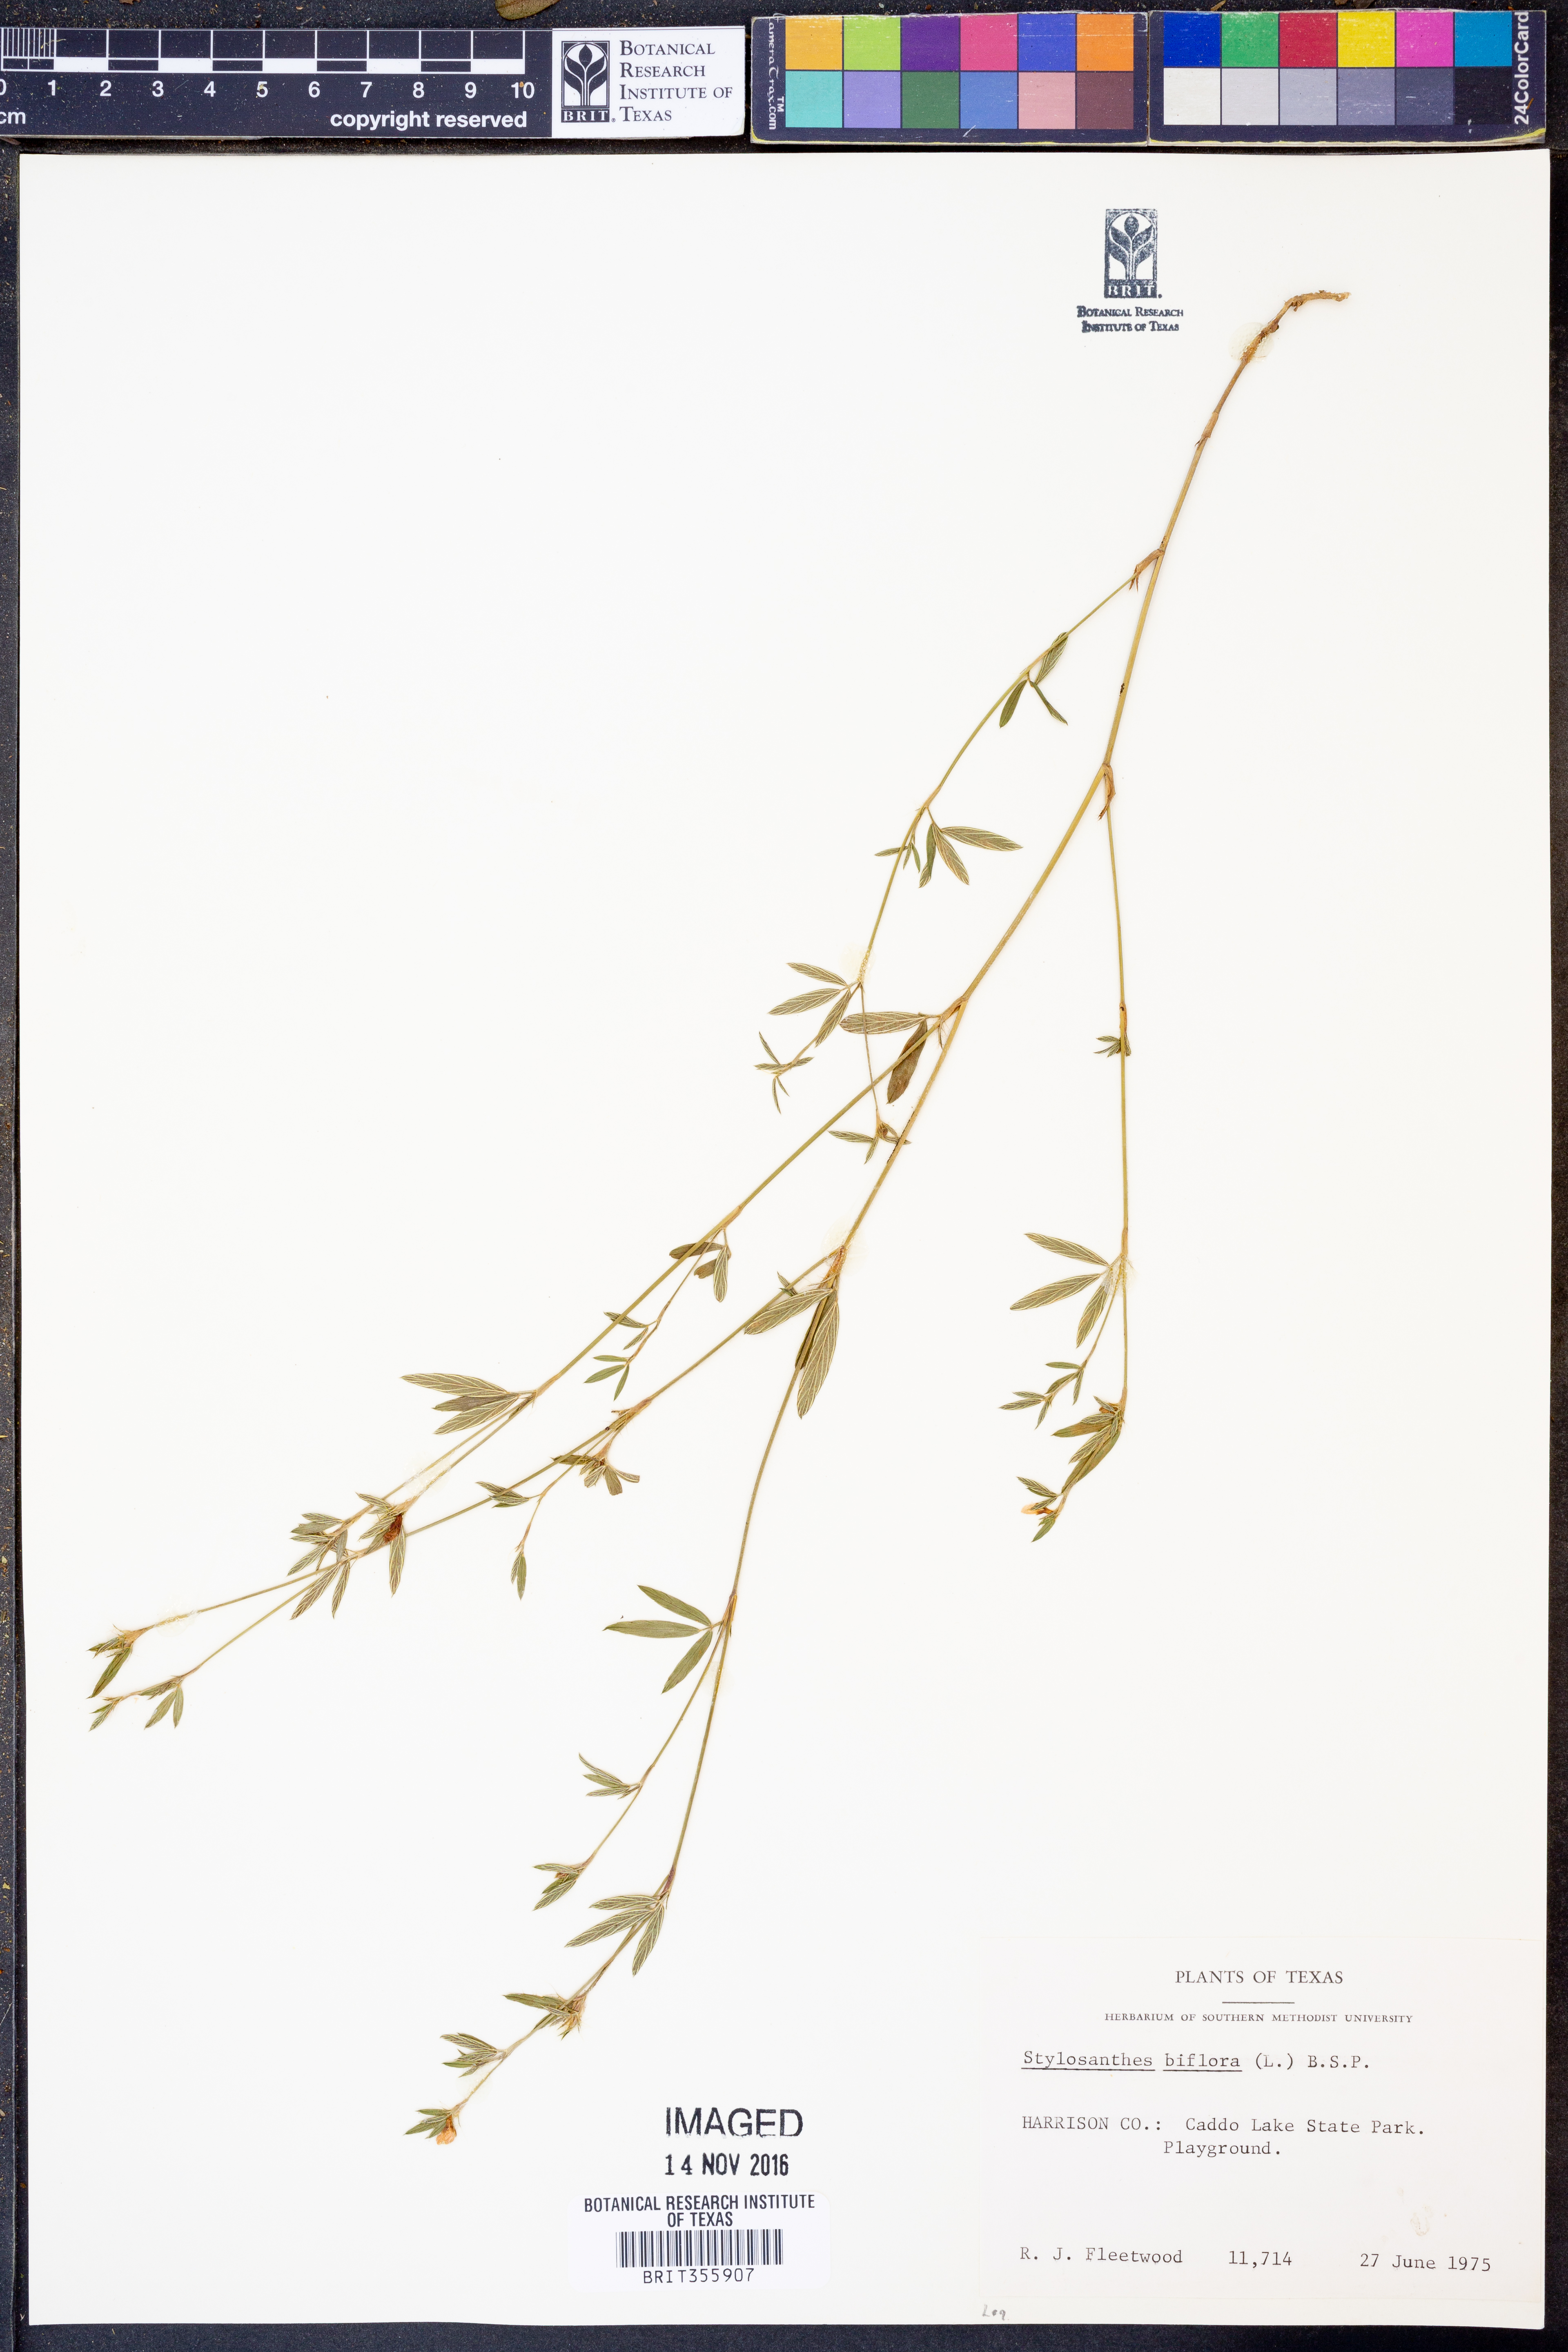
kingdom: Plantae
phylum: Tracheophyta
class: Magnoliopsida
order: Fabales
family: Fabaceae
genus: Stylosanthes
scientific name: Stylosanthes biflora
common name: Two-flower pencil-flower
